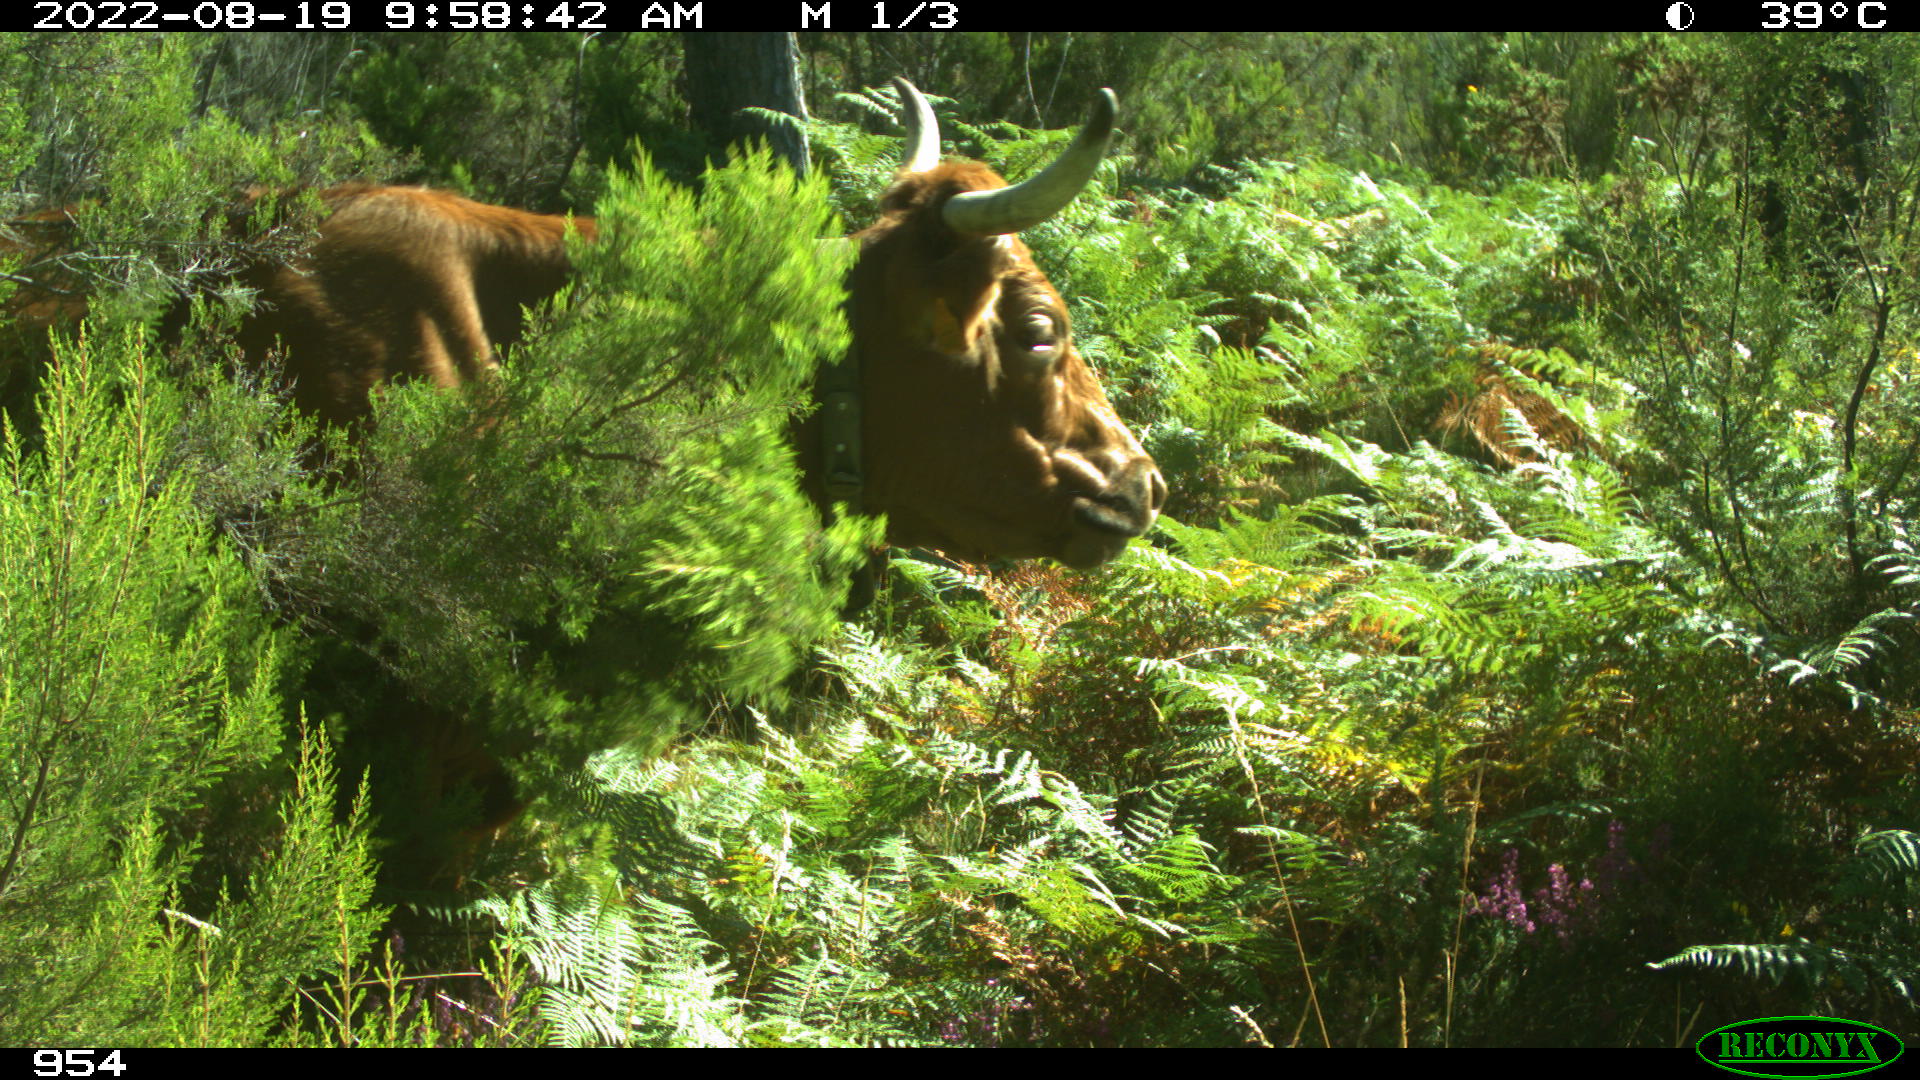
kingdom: Animalia
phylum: Chordata
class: Mammalia
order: Artiodactyla
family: Bovidae
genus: Bos
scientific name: Bos taurus
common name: Domesticated cattle
